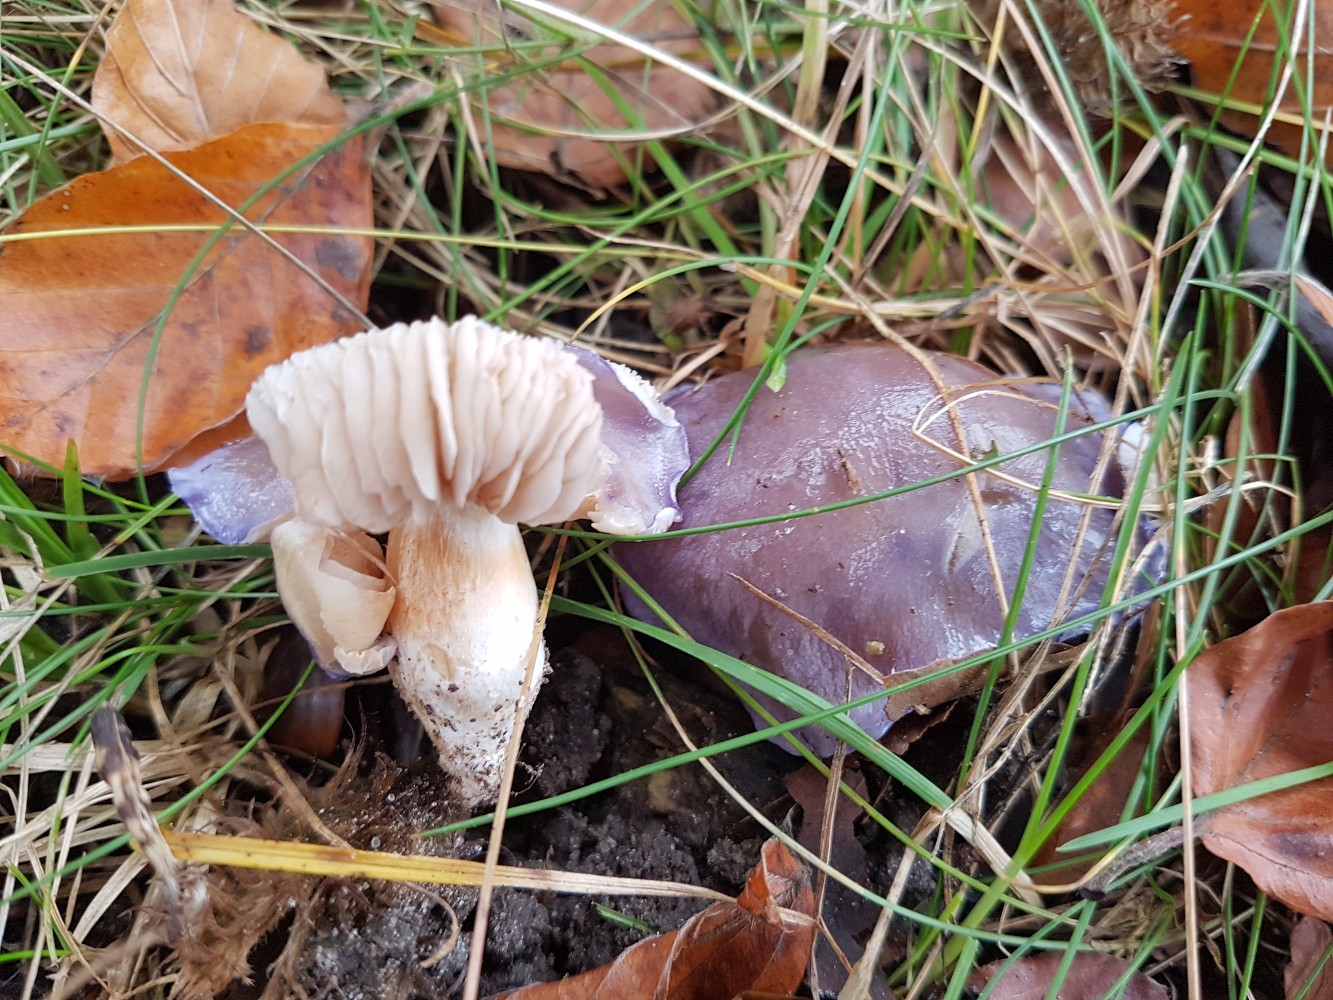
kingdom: Fungi
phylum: Basidiomycota
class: Agaricomycetes
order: Agaricales
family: Cortinariaceae
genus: Thaxterogaster
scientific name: Thaxterogaster croceocoeruleus
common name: blågullig slørhat
